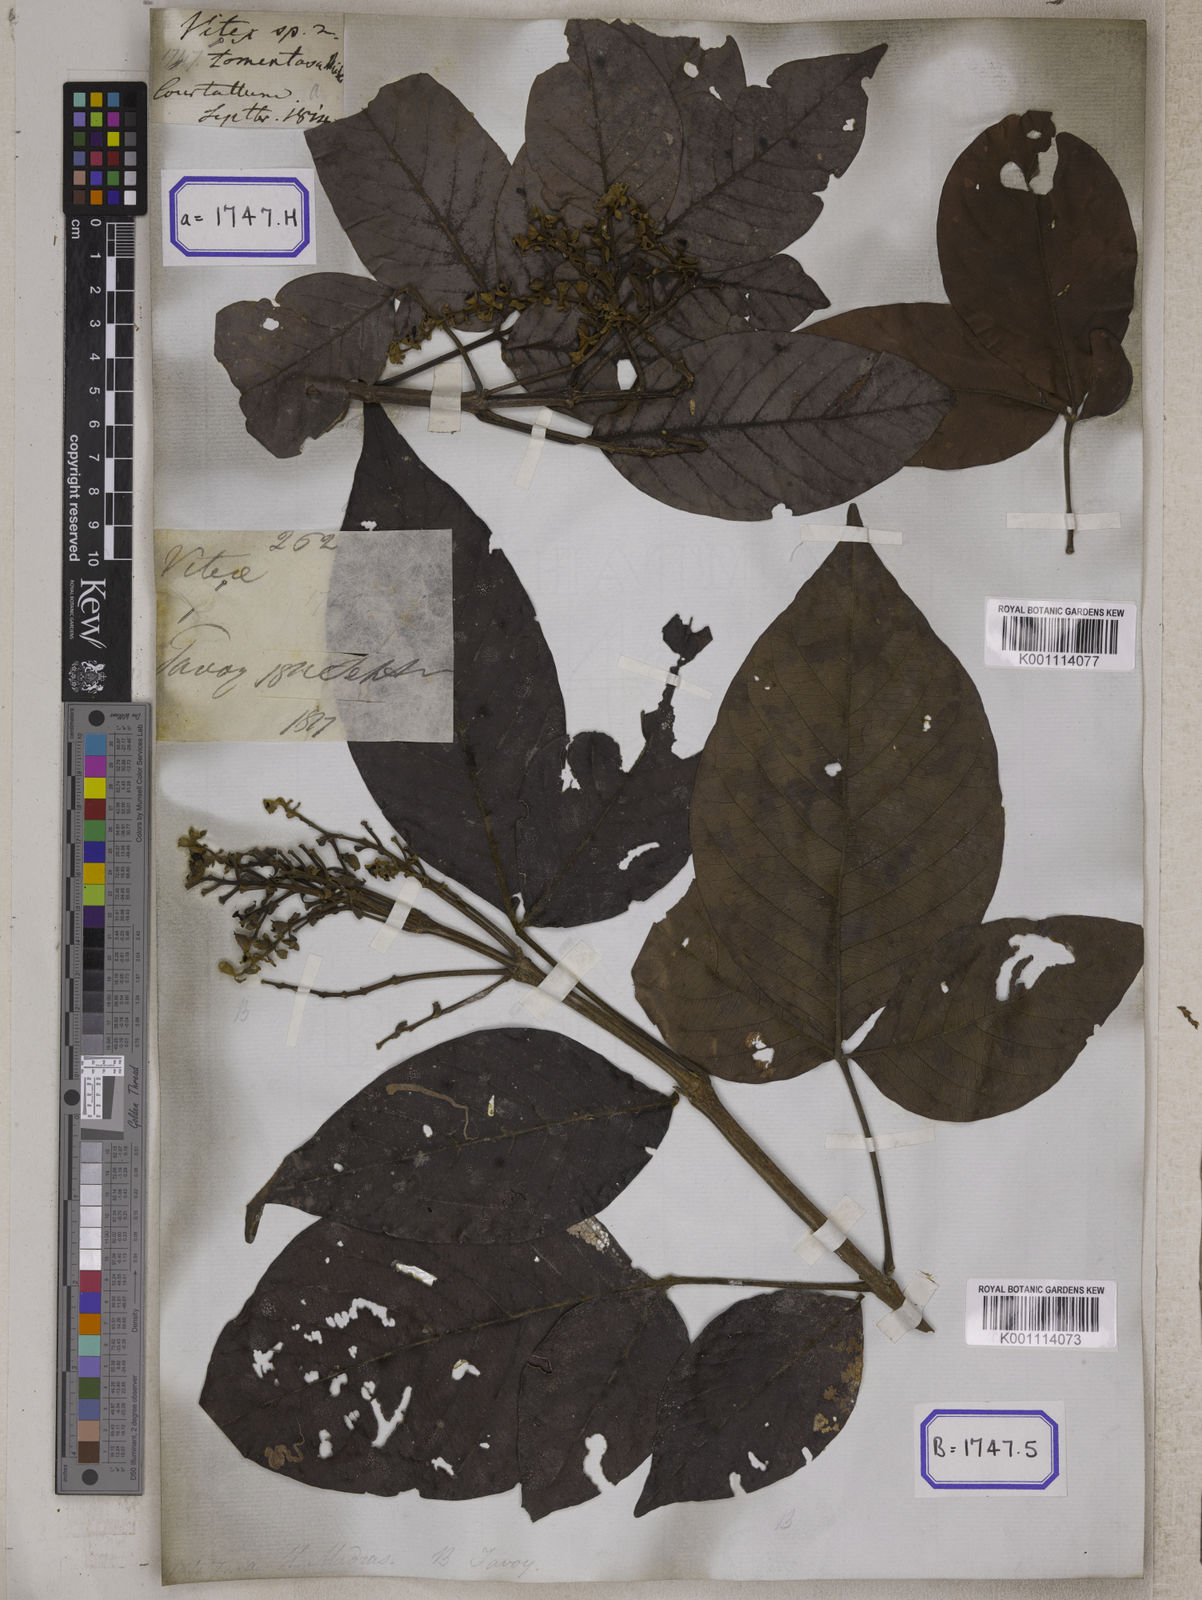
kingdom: Plantae
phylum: Tracheophyta
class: Magnoliopsida
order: Lamiales
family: Lamiaceae
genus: Vitex
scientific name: Vitex pinnata
